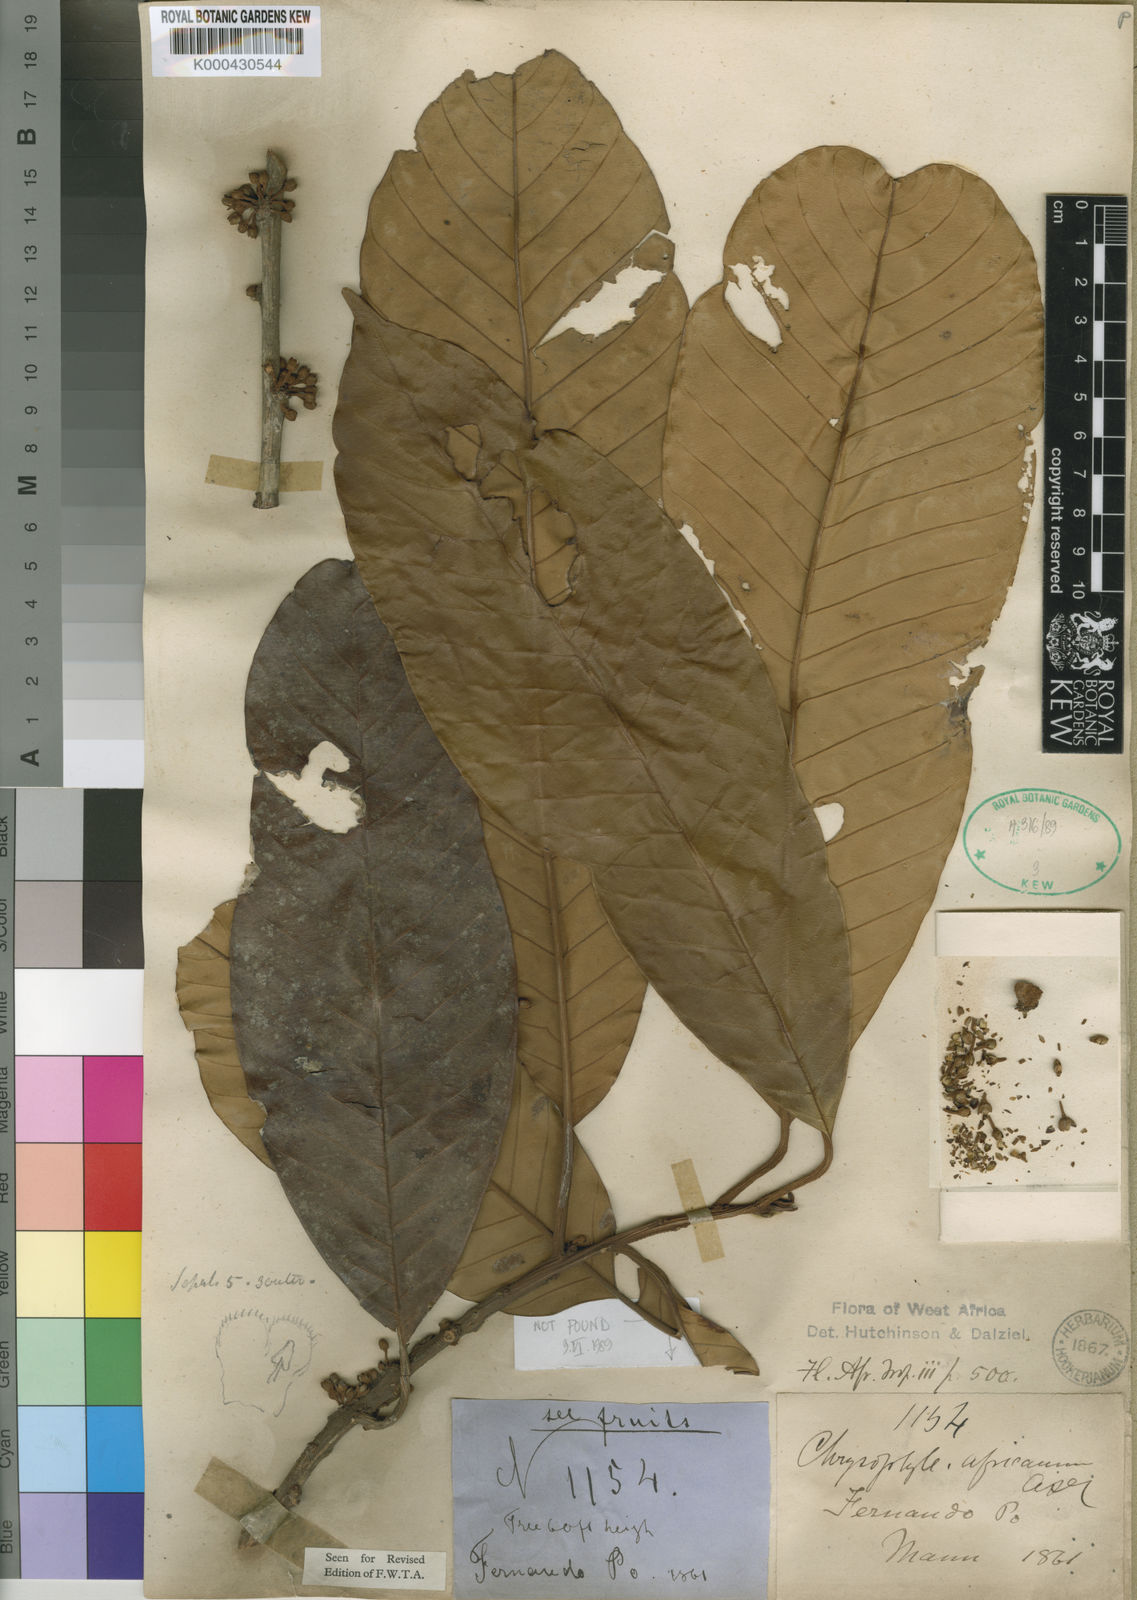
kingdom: Plantae
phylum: Tracheophyta
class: Magnoliopsida
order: Ericales
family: Sapotaceae
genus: Gambeya
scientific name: Gambeya africana
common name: African star apple
